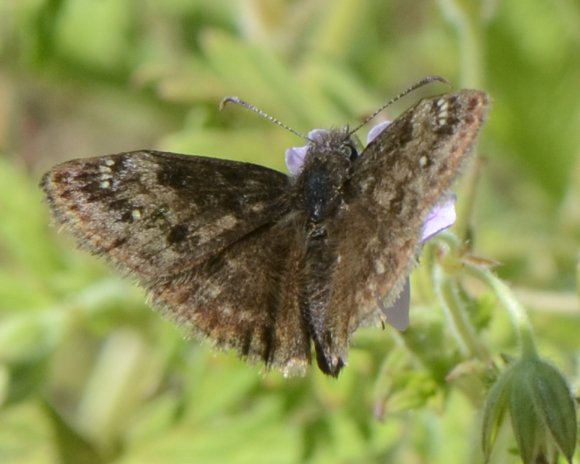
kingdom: Animalia
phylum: Arthropoda
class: Insecta
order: Lepidoptera
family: Hesperiidae
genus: Gesta
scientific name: Gesta
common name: Juvenal's Duskywing
